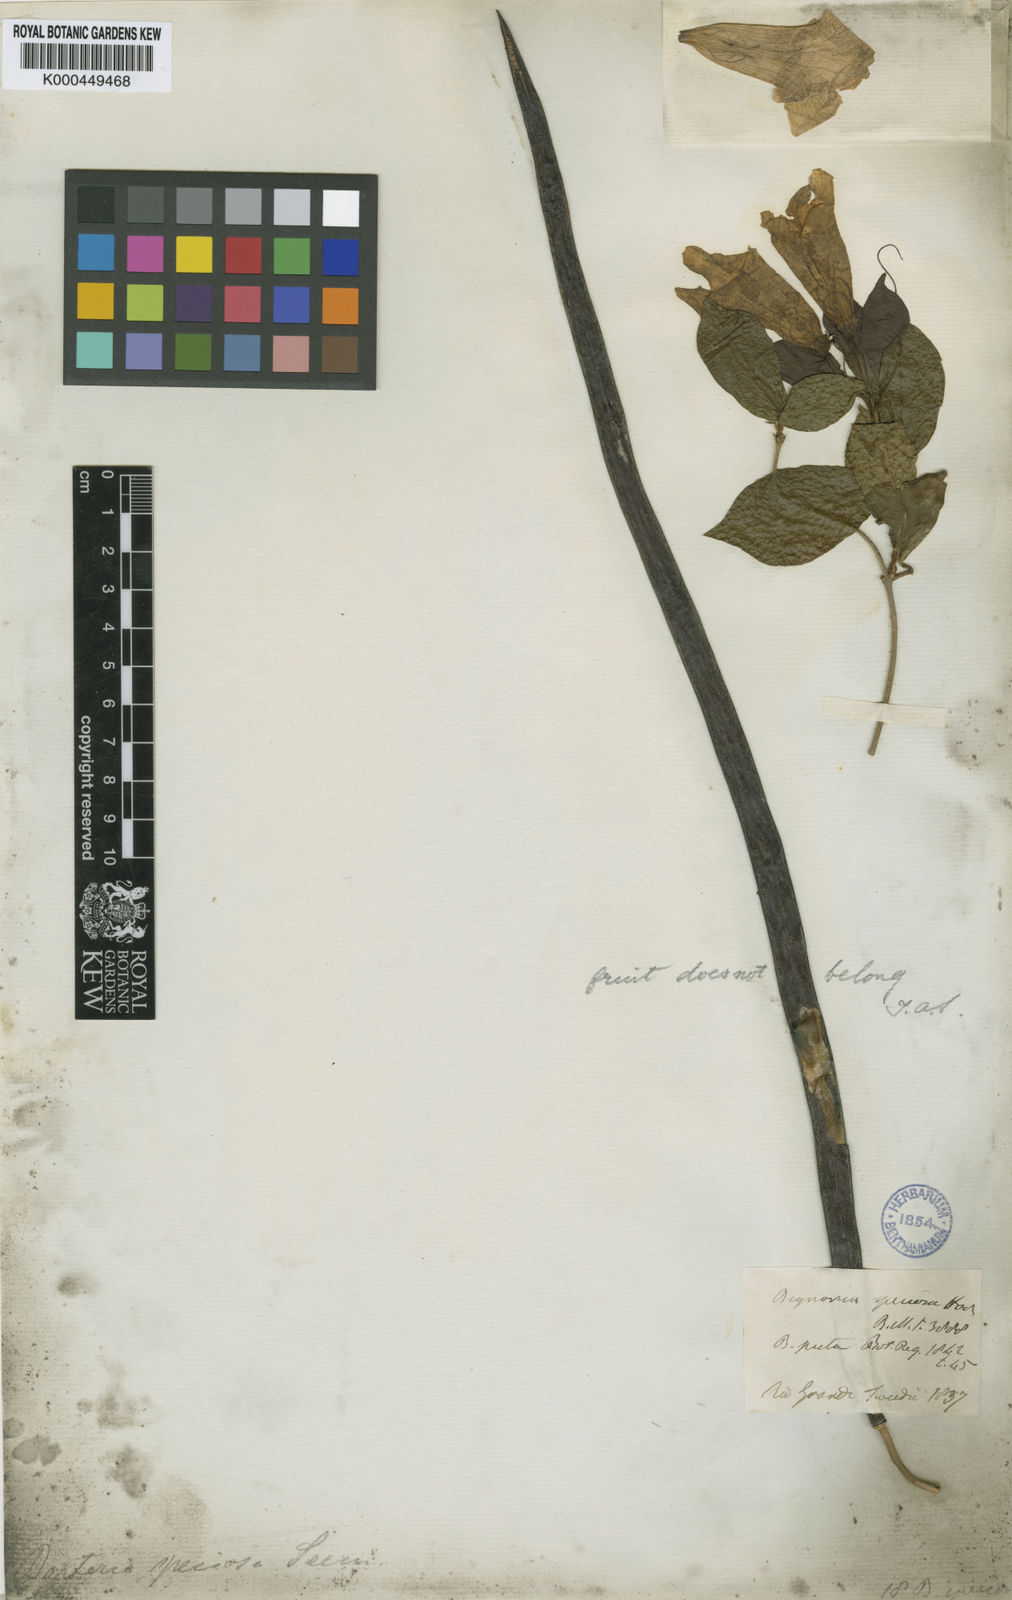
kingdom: Plantae
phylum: Tracheophyta
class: Magnoliopsida
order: Lamiales
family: Bignoniaceae
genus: Bignonia
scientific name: Bignonia callistegioides
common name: Argentine trumpetvine
